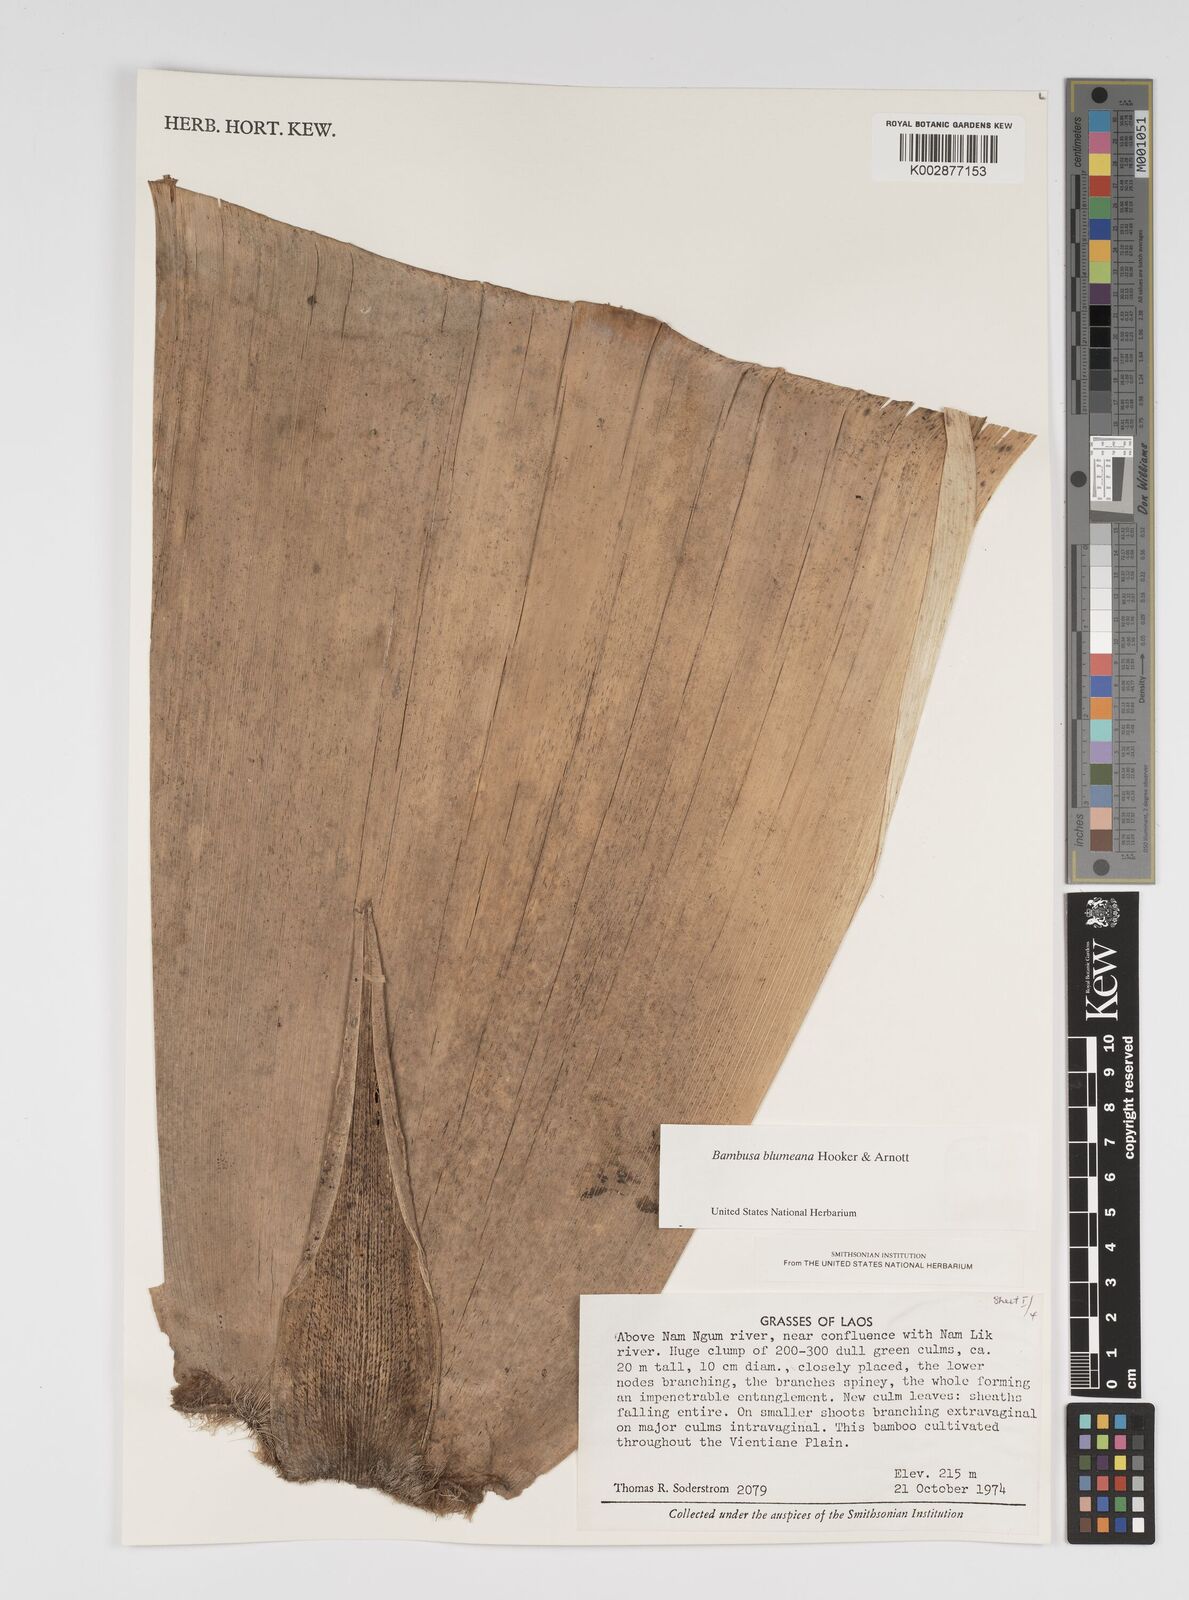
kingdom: Plantae
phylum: Tracheophyta
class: Liliopsida
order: Poales
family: Poaceae
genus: Bambusa
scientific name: Bambusa tuldoides
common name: Verdant bamboo
